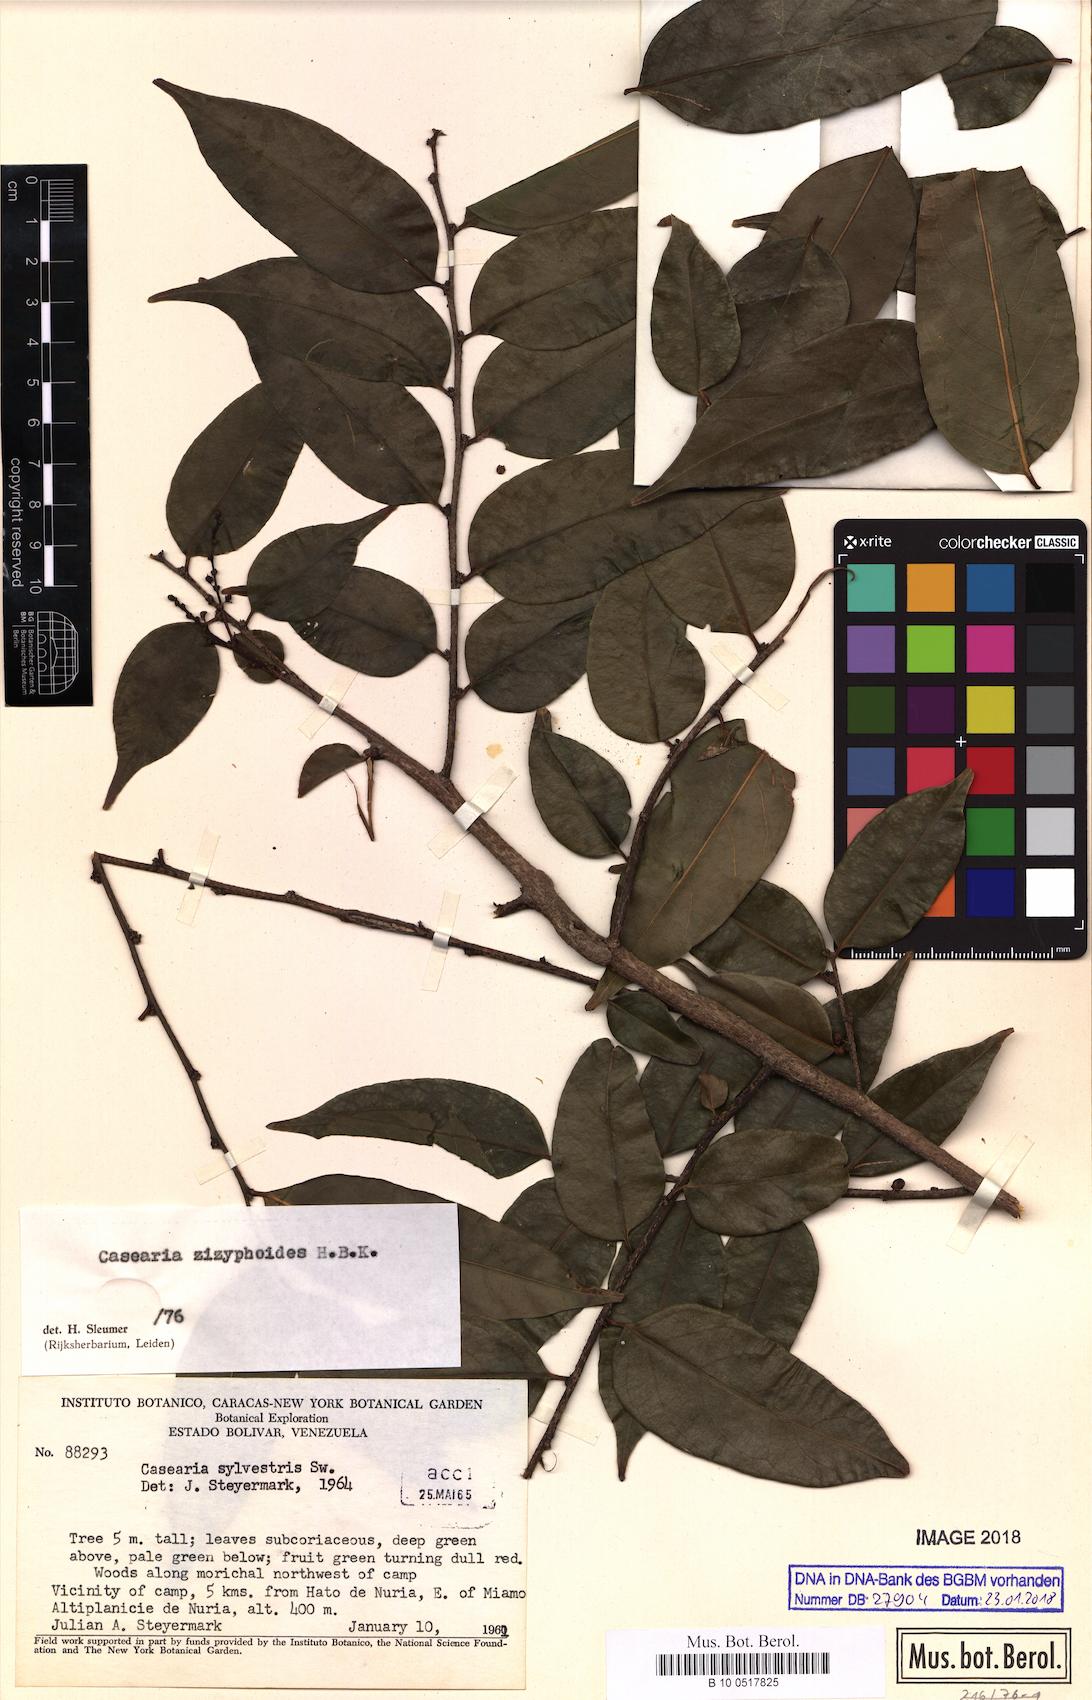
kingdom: Plantae
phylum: Tracheophyta
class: Magnoliopsida
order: Malpighiales
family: Salicaceae
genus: Casearia
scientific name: Casearia zizyphoides
